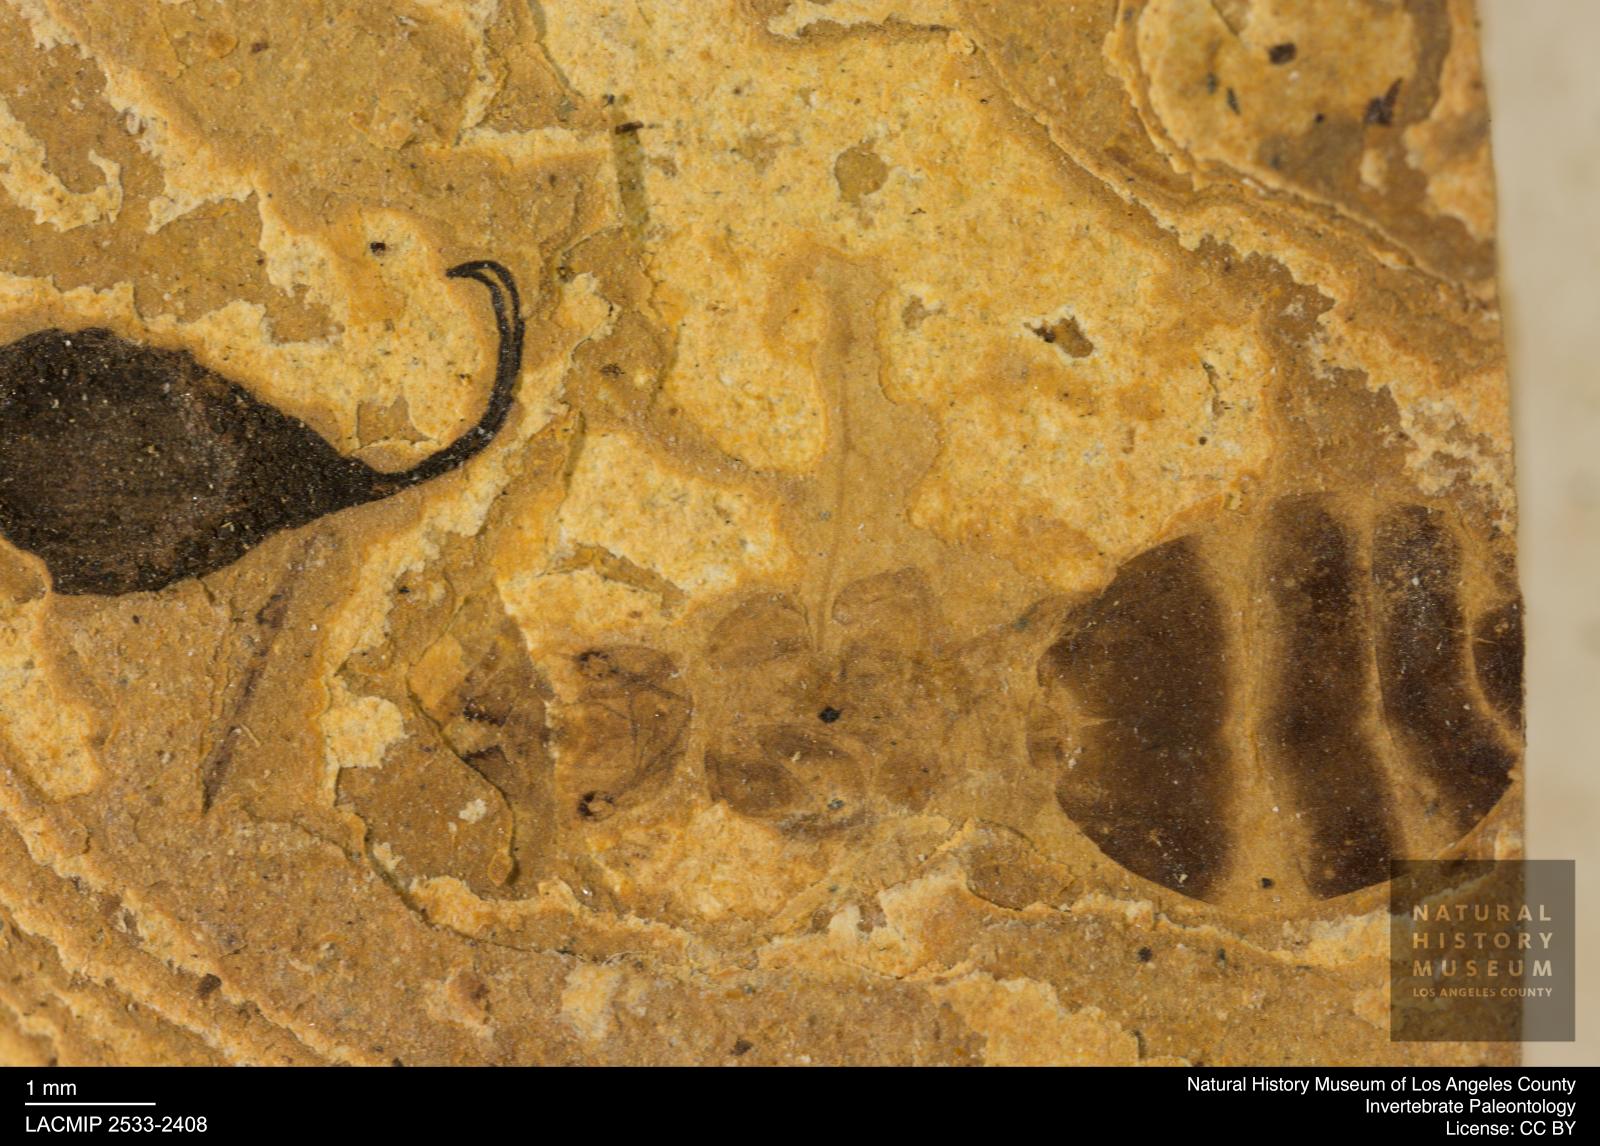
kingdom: Animalia
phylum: Arthropoda
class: Insecta
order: Hymenoptera
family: Formicidae
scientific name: Formicidae
